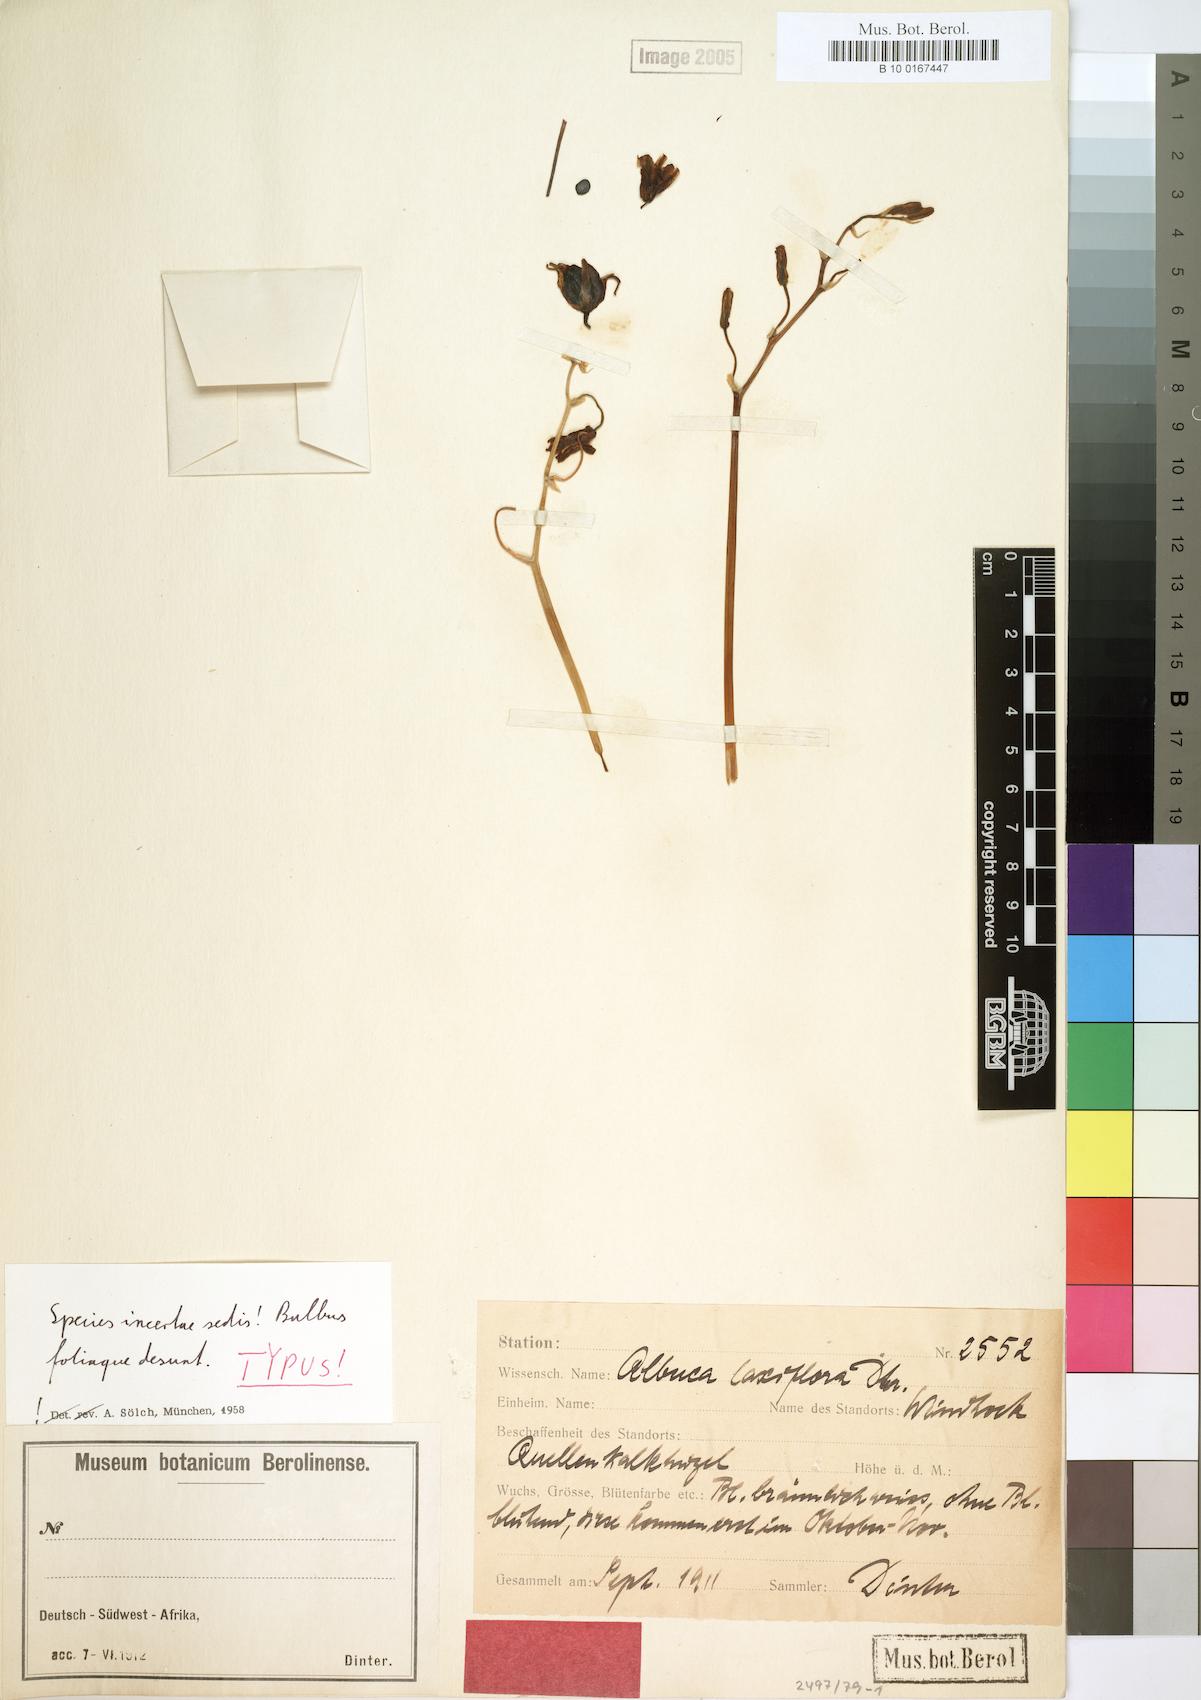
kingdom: Plantae
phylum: Tracheophyta
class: Liliopsida
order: Asparagales
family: Asparagaceae
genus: Albuca
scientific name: Albuca laxiflora
